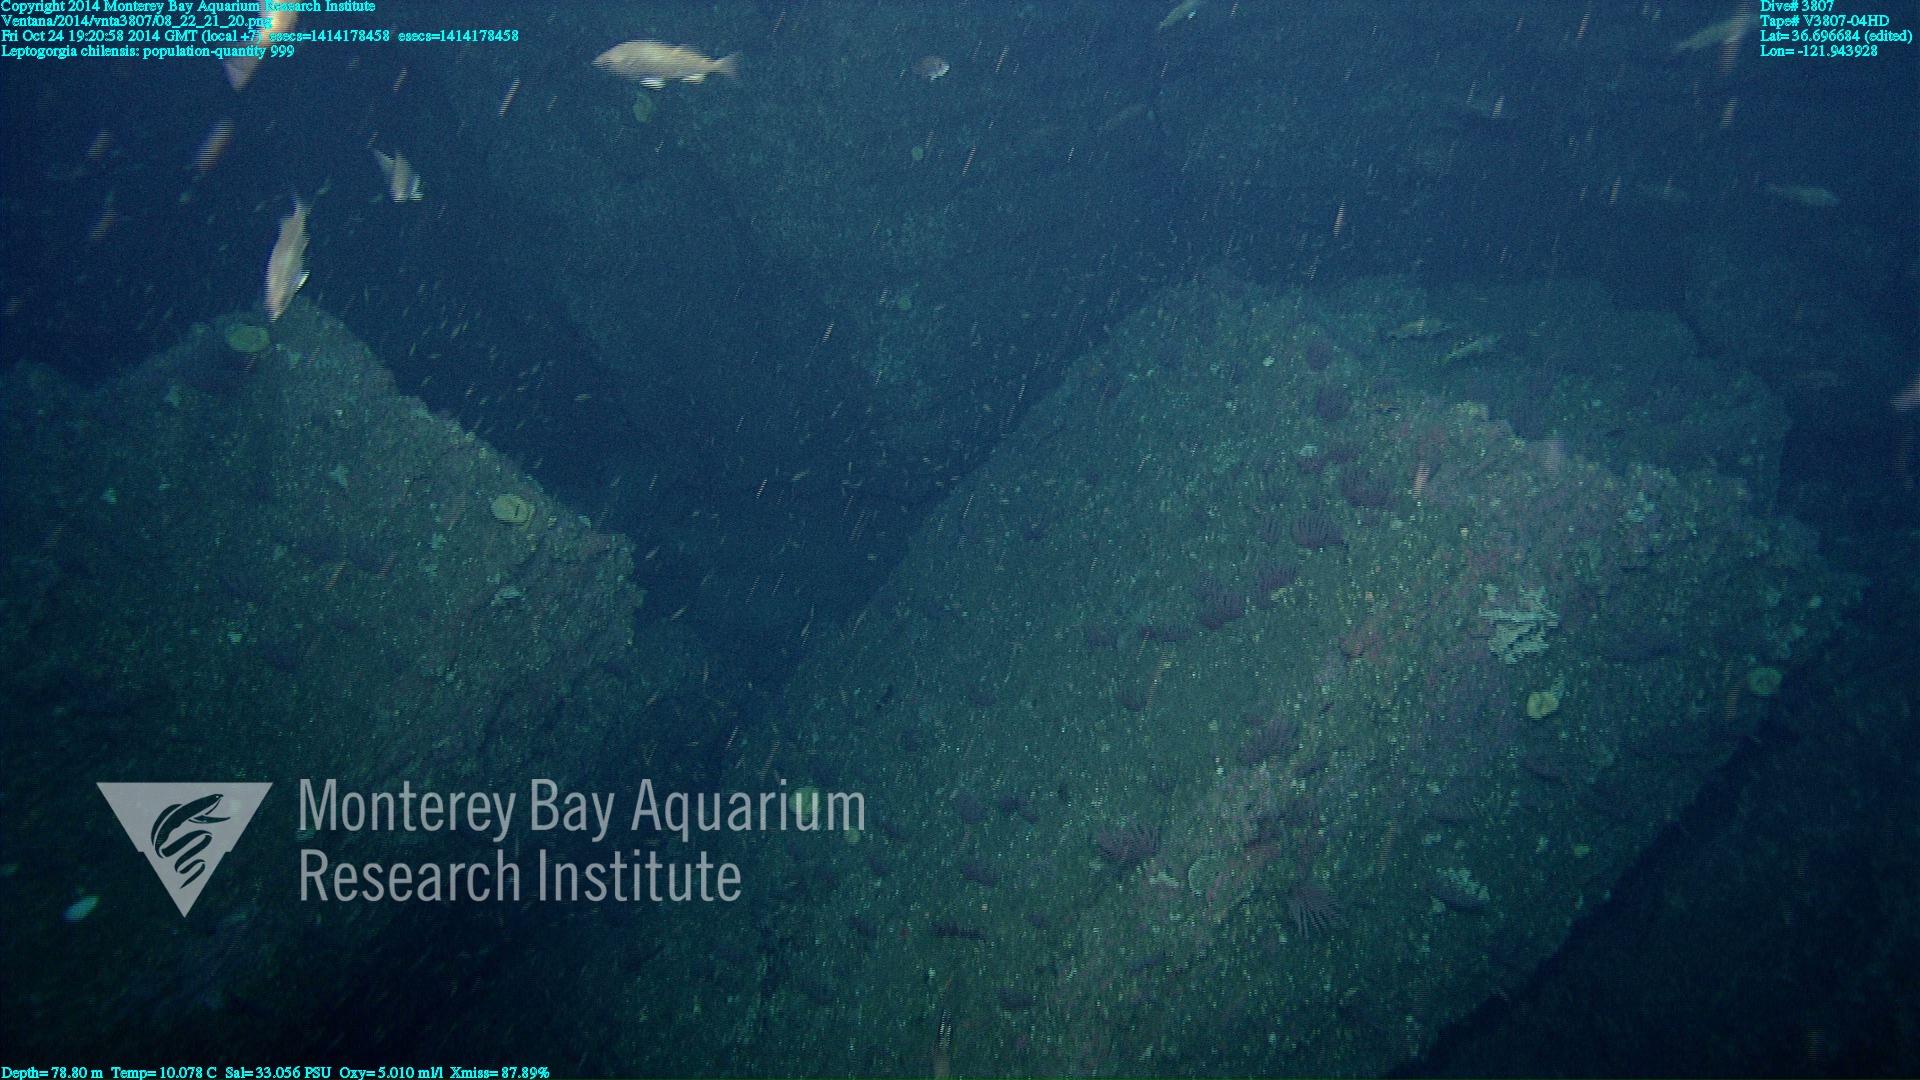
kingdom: Animalia
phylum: Cnidaria
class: Anthozoa
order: Malacalcyonacea
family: Gorgoniidae
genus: Leptogorgia
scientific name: Leptogorgia chilensis
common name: Carmine sea spray
